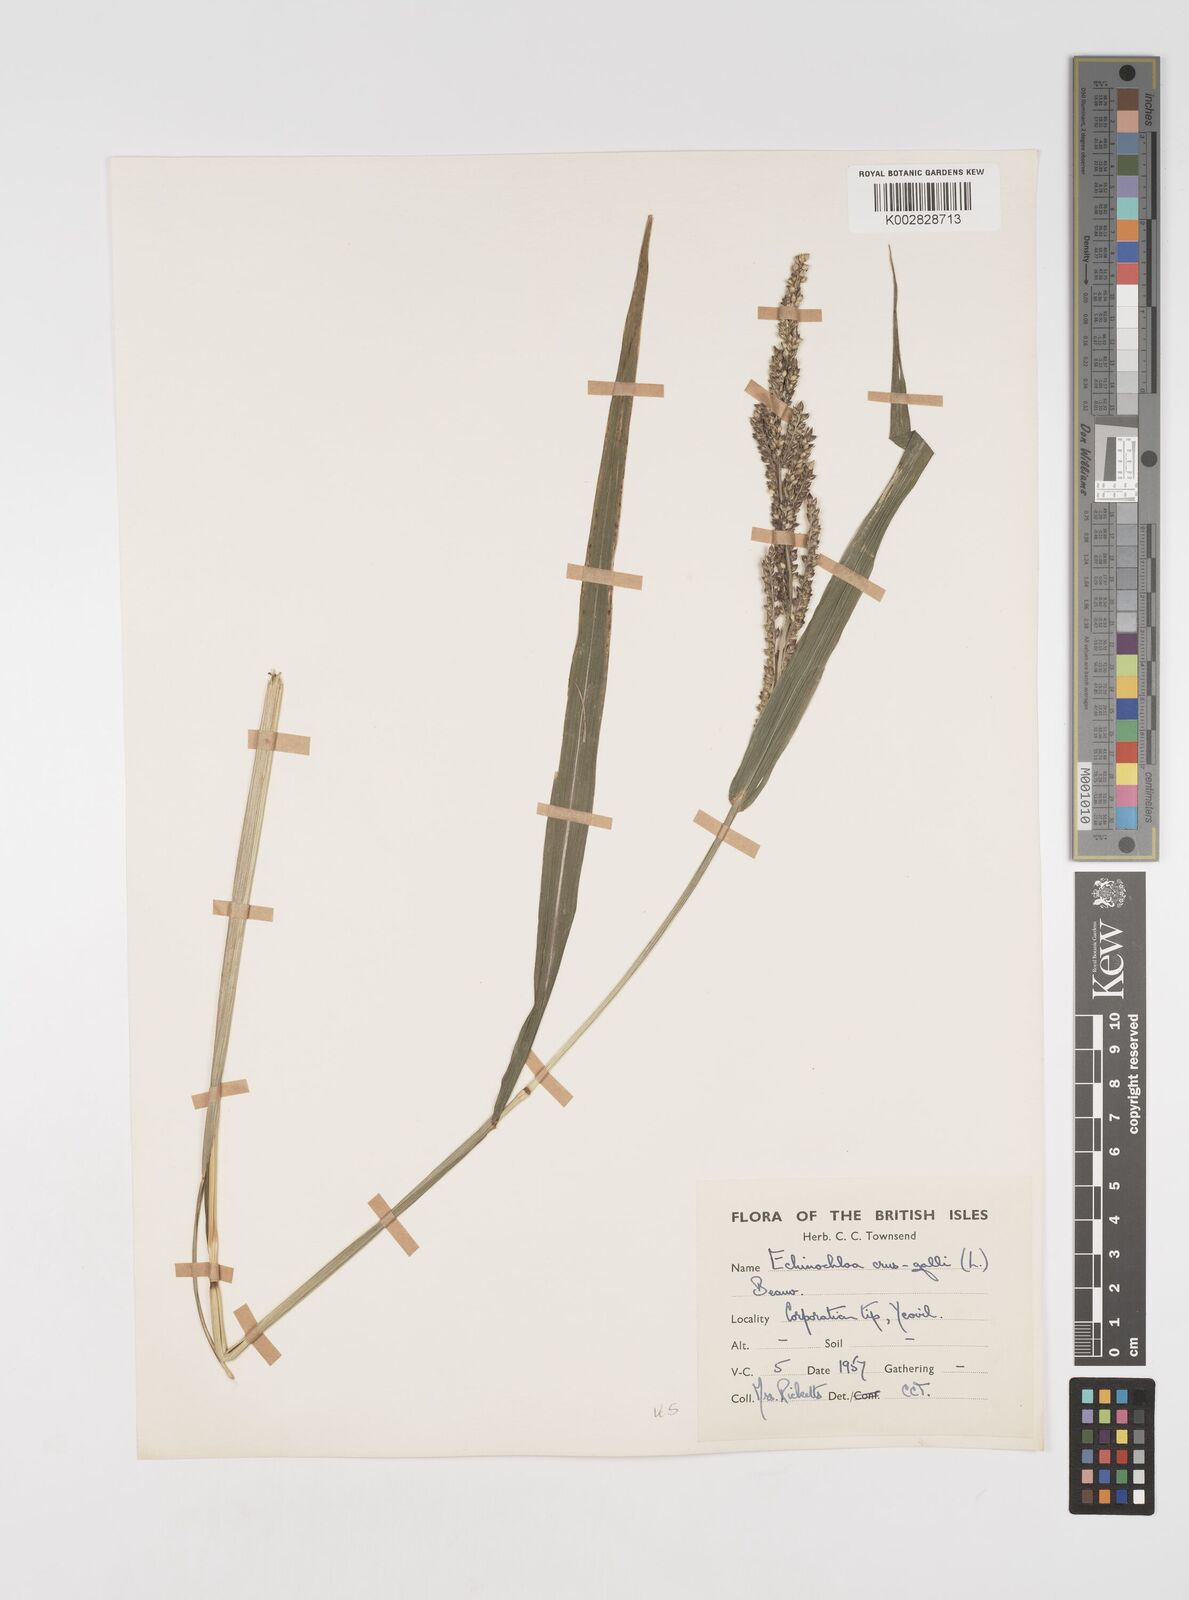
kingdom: Plantae
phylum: Tracheophyta
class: Liliopsida
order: Poales
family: Poaceae
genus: Echinochloa
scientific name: Echinochloa crus-galli
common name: Cockspur
